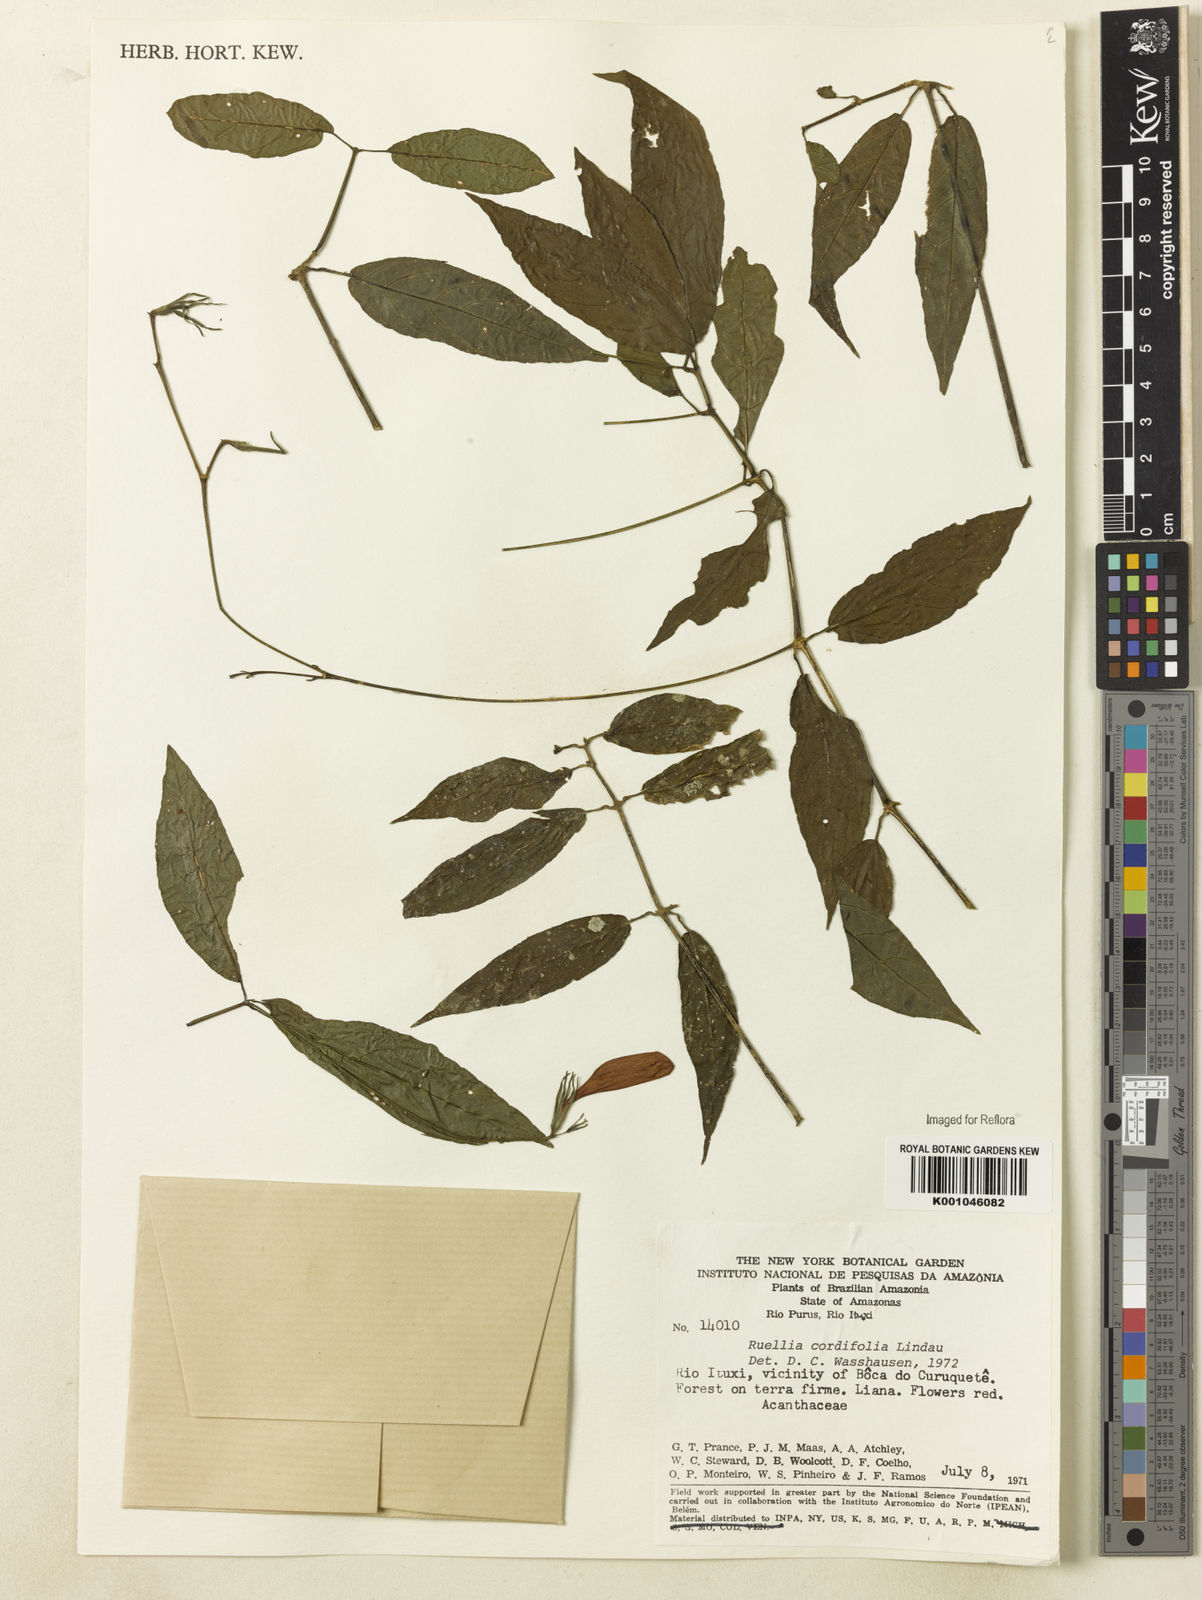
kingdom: Plantae
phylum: Tracheophyta
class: Magnoliopsida
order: Lamiales
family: Acanthaceae
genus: Ruellia
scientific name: Ruellia inflata
